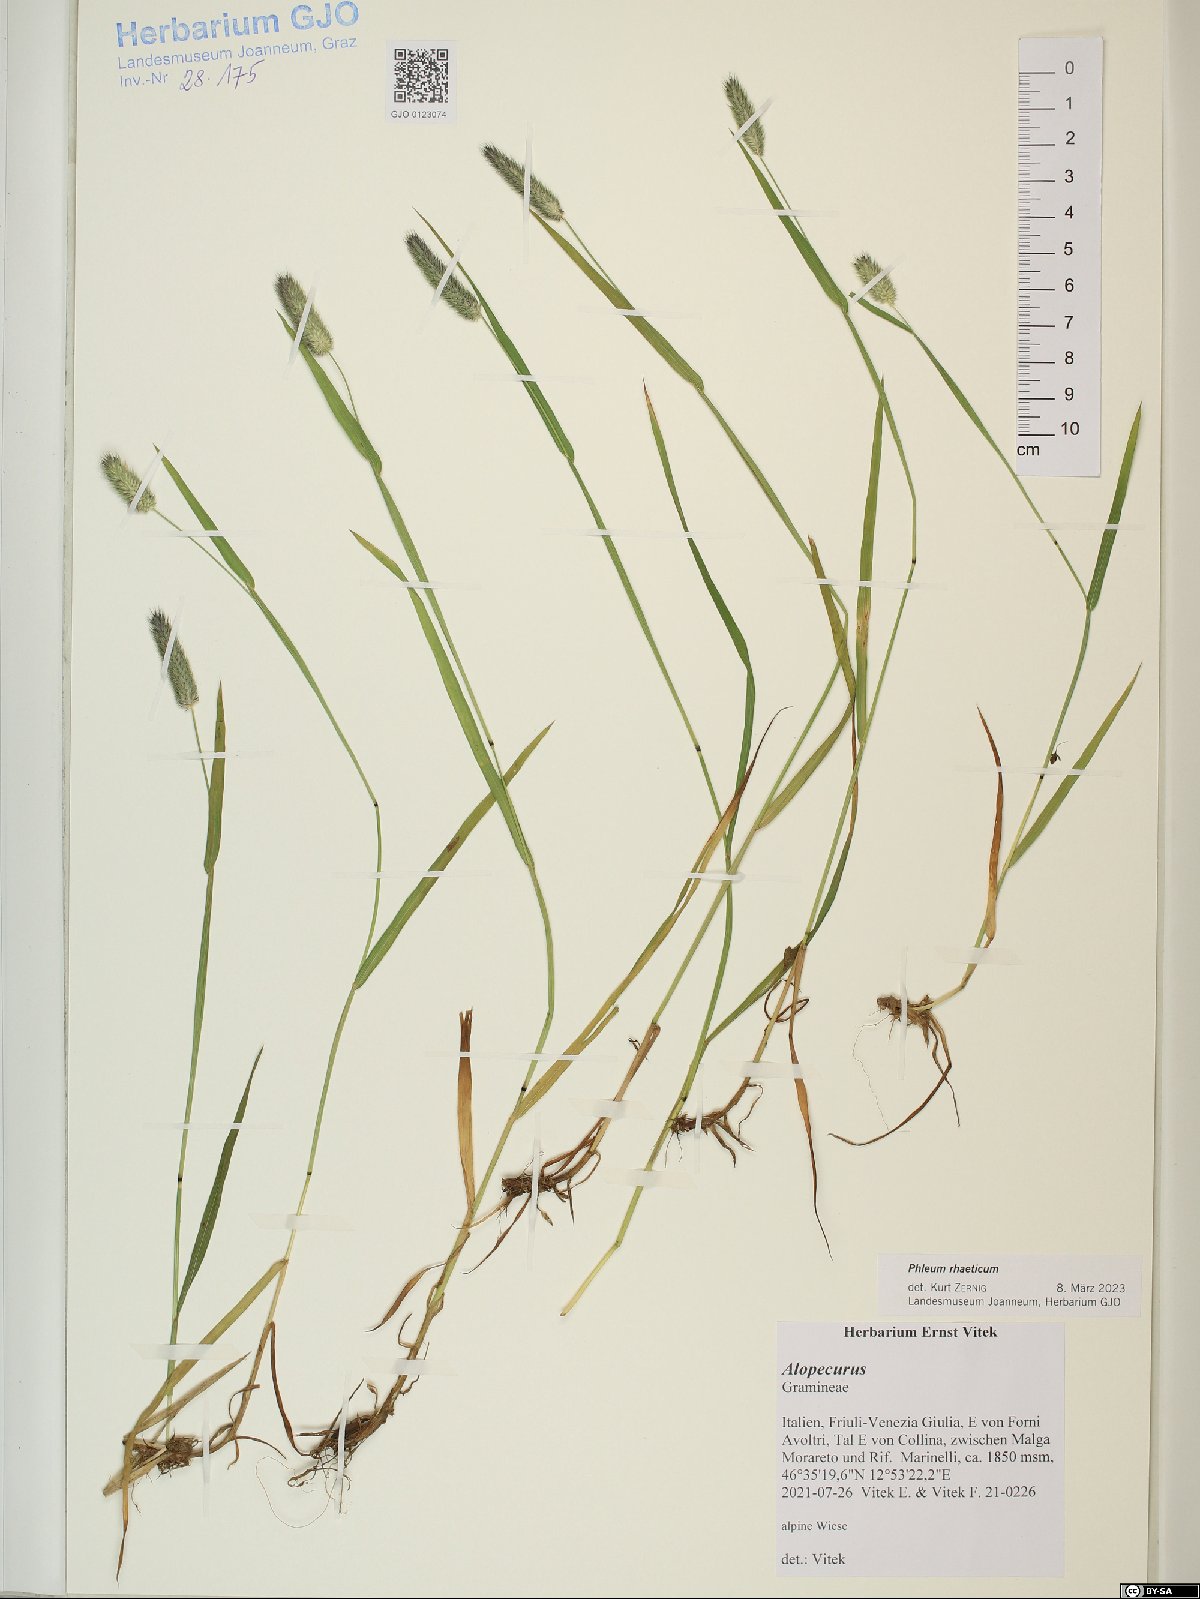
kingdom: Plantae
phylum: Tracheophyta
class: Liliopsida
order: Poales
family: Poaceae
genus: Phleum
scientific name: Phleum alpinum
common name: Alpine cat's-tail
